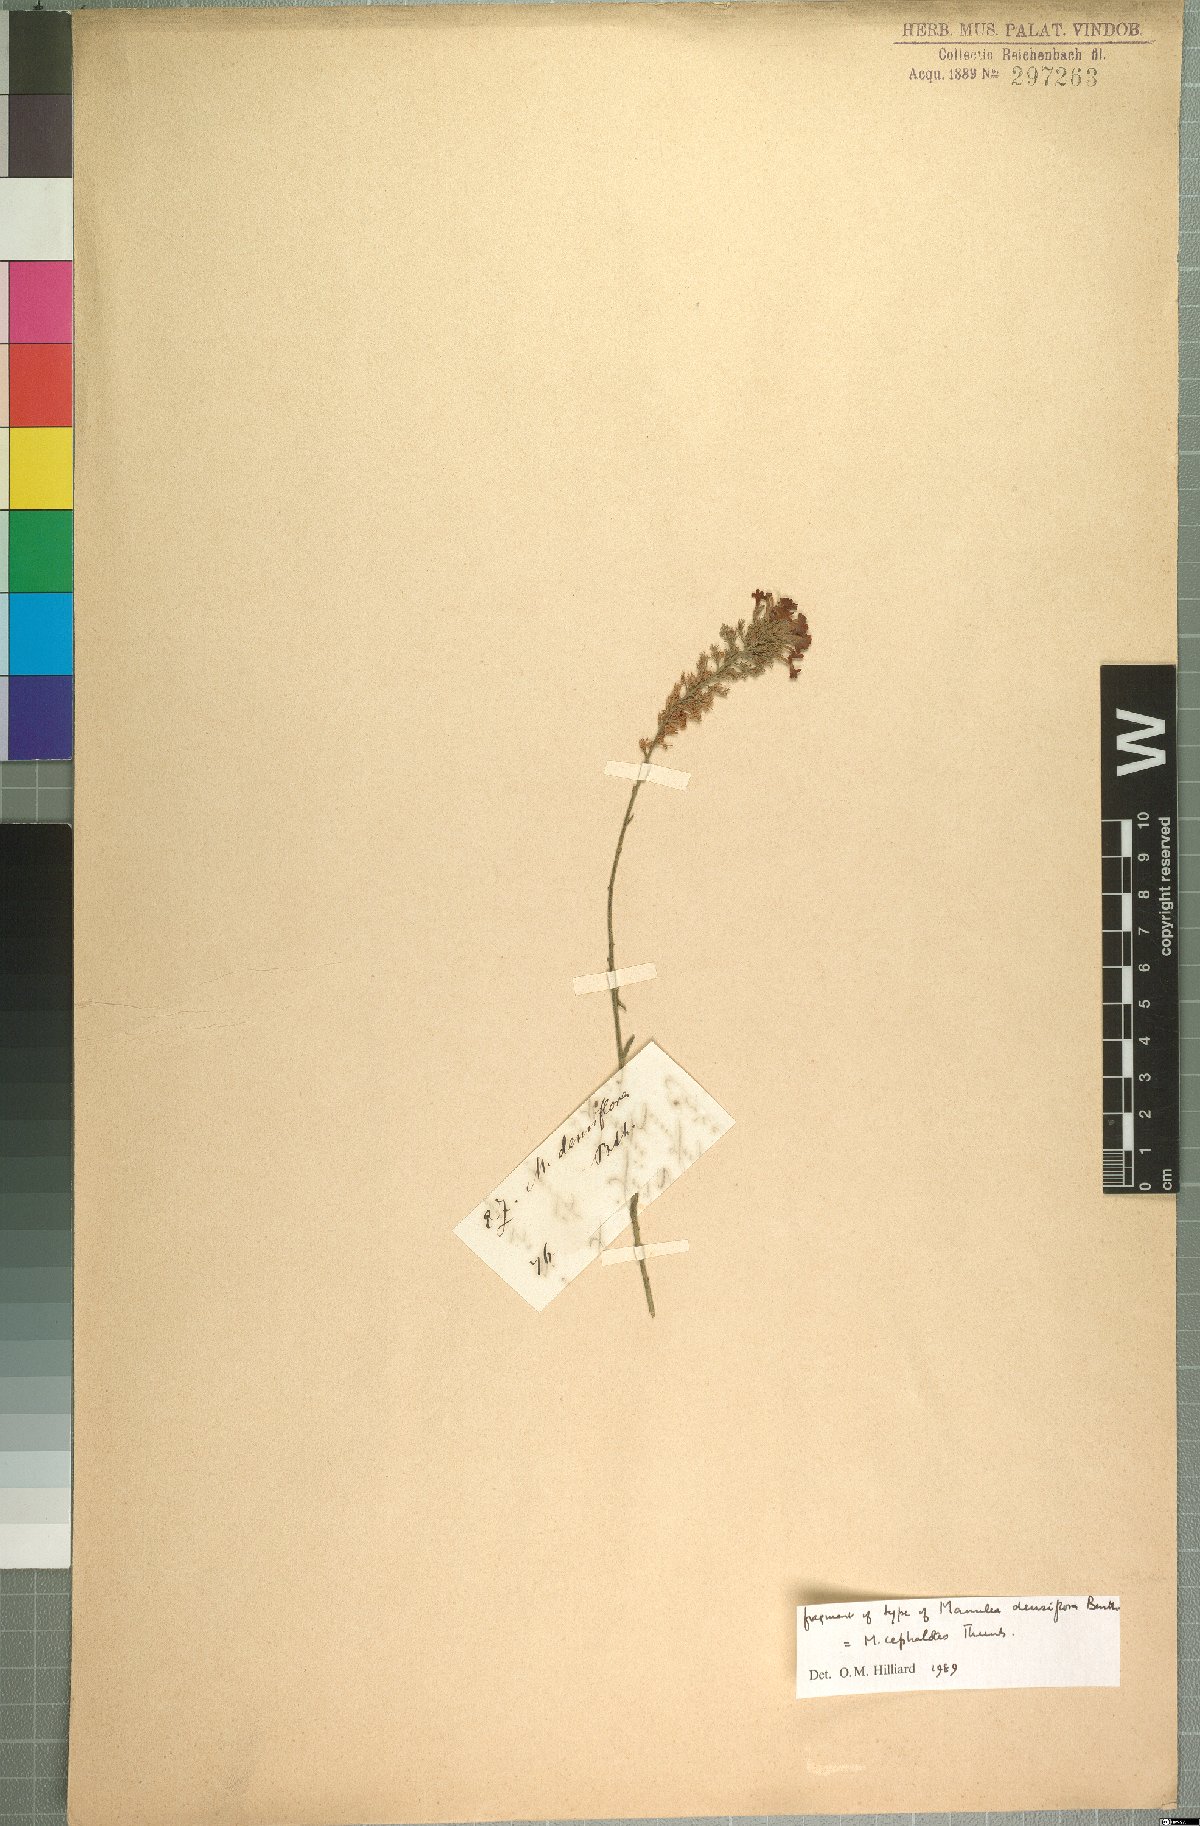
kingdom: Plantae
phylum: Tracheophyta
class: Magnoliopsida
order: Lamiales
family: Scrophulariaceae
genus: Manulea
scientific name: Manulea cephalotes
